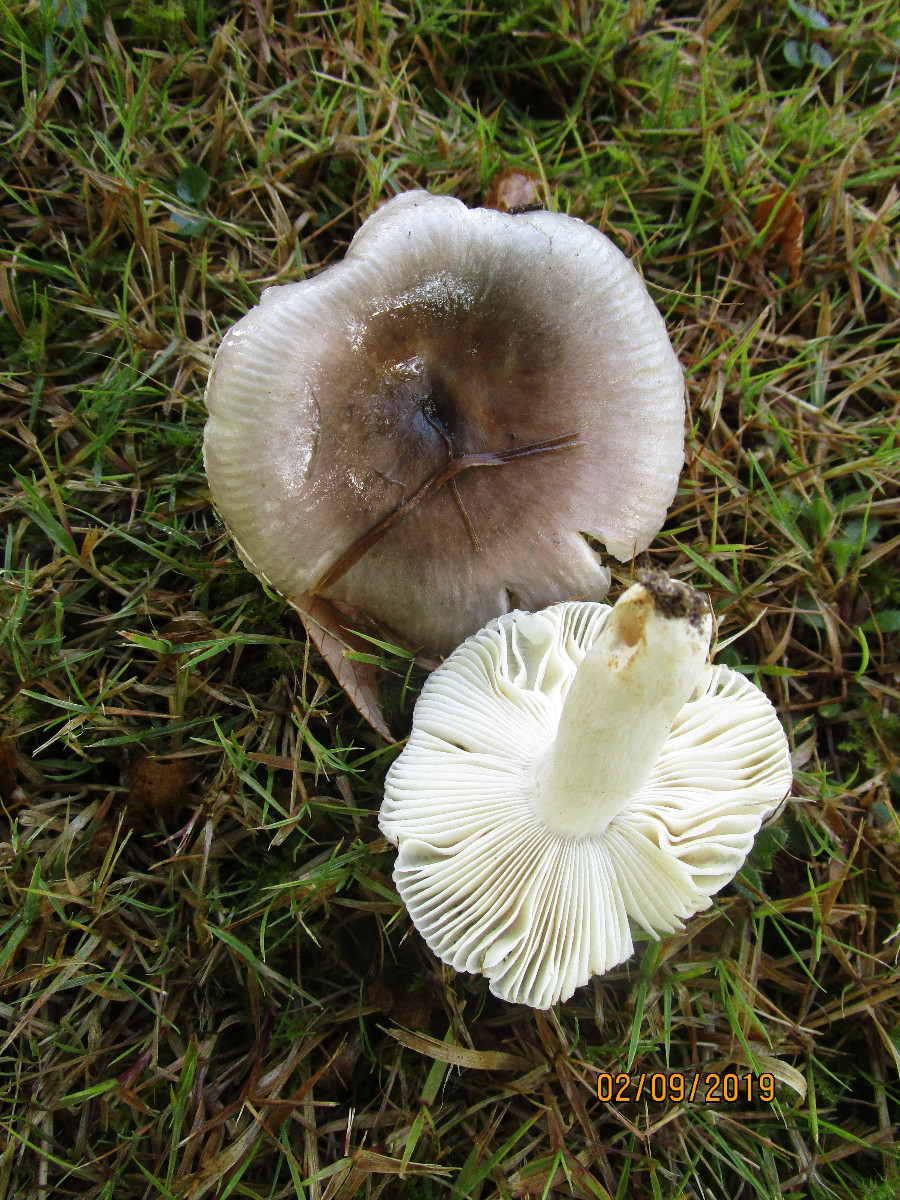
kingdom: Fungi
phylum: Basidiomycota
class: Agaricomycetes
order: Russulales
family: Russulaceae
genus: Russula
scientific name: Russula grisea
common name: grålig skørhat
